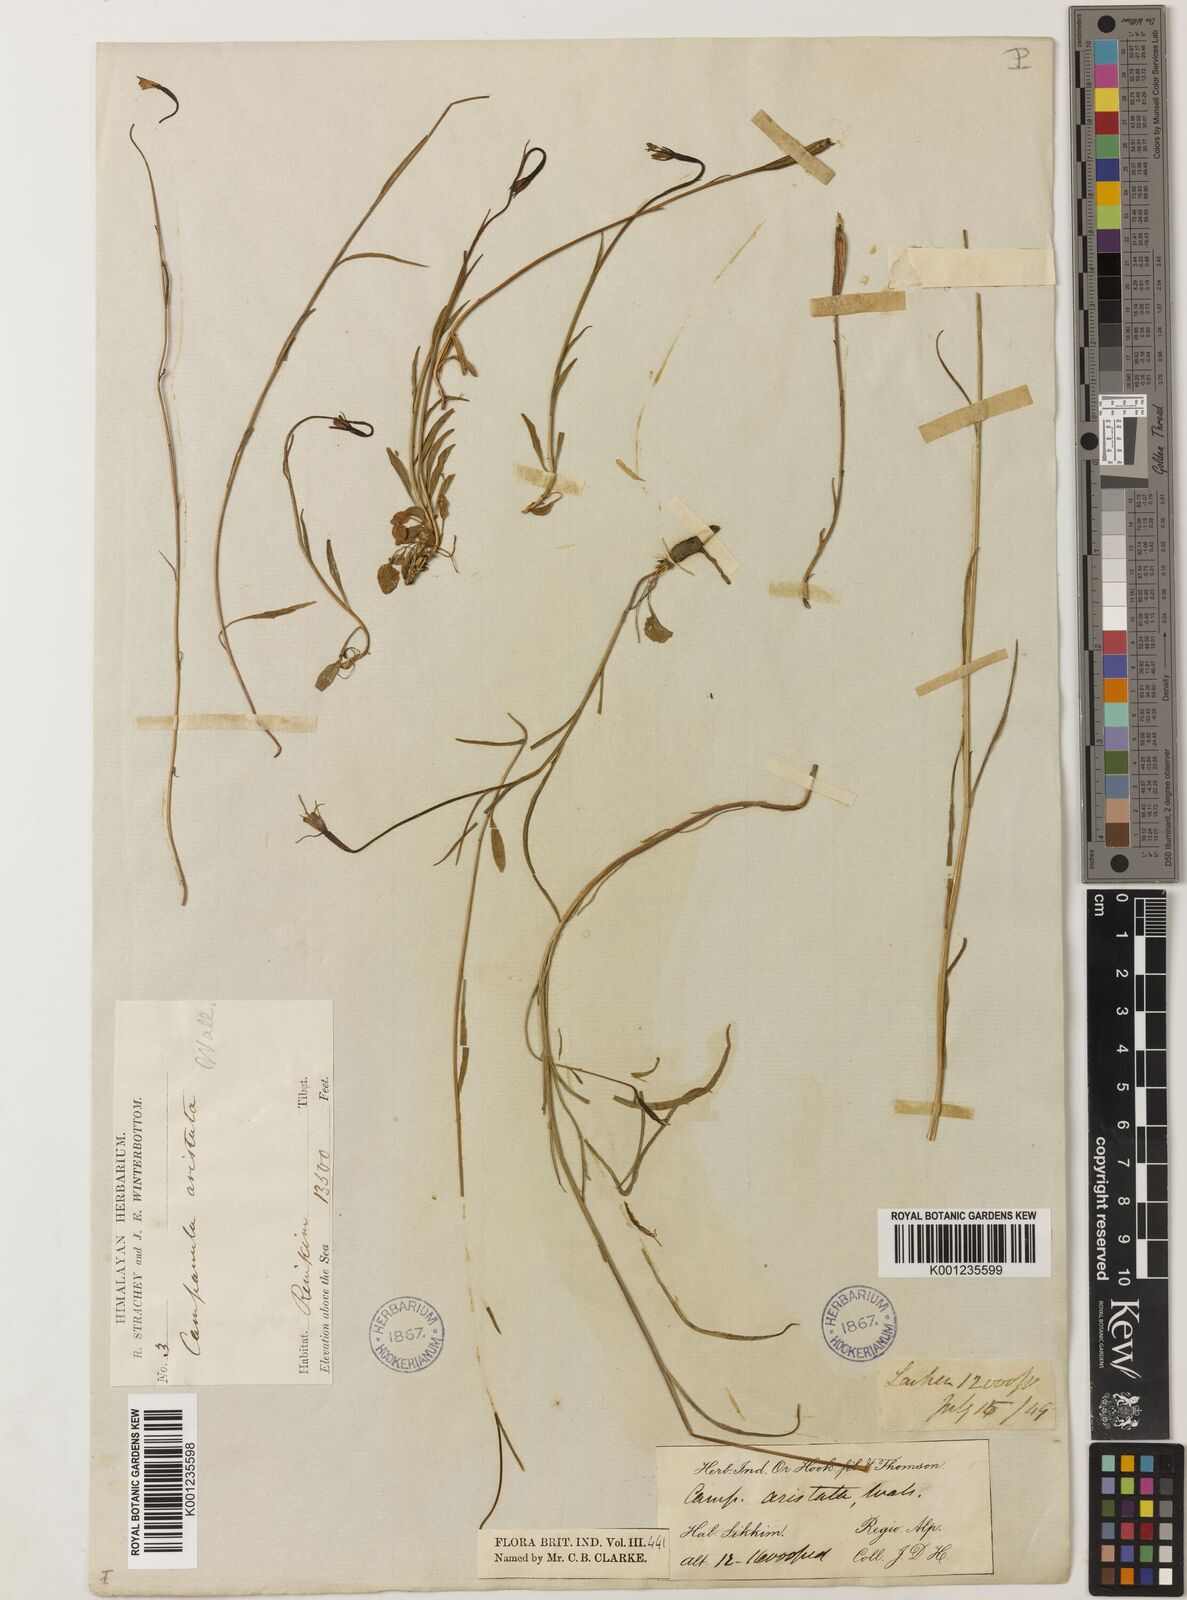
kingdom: Plantae
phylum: Tracheophyta
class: Magnoliopsida
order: Asterales
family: Campanulaceae
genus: Campanula
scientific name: Campanula aristata
